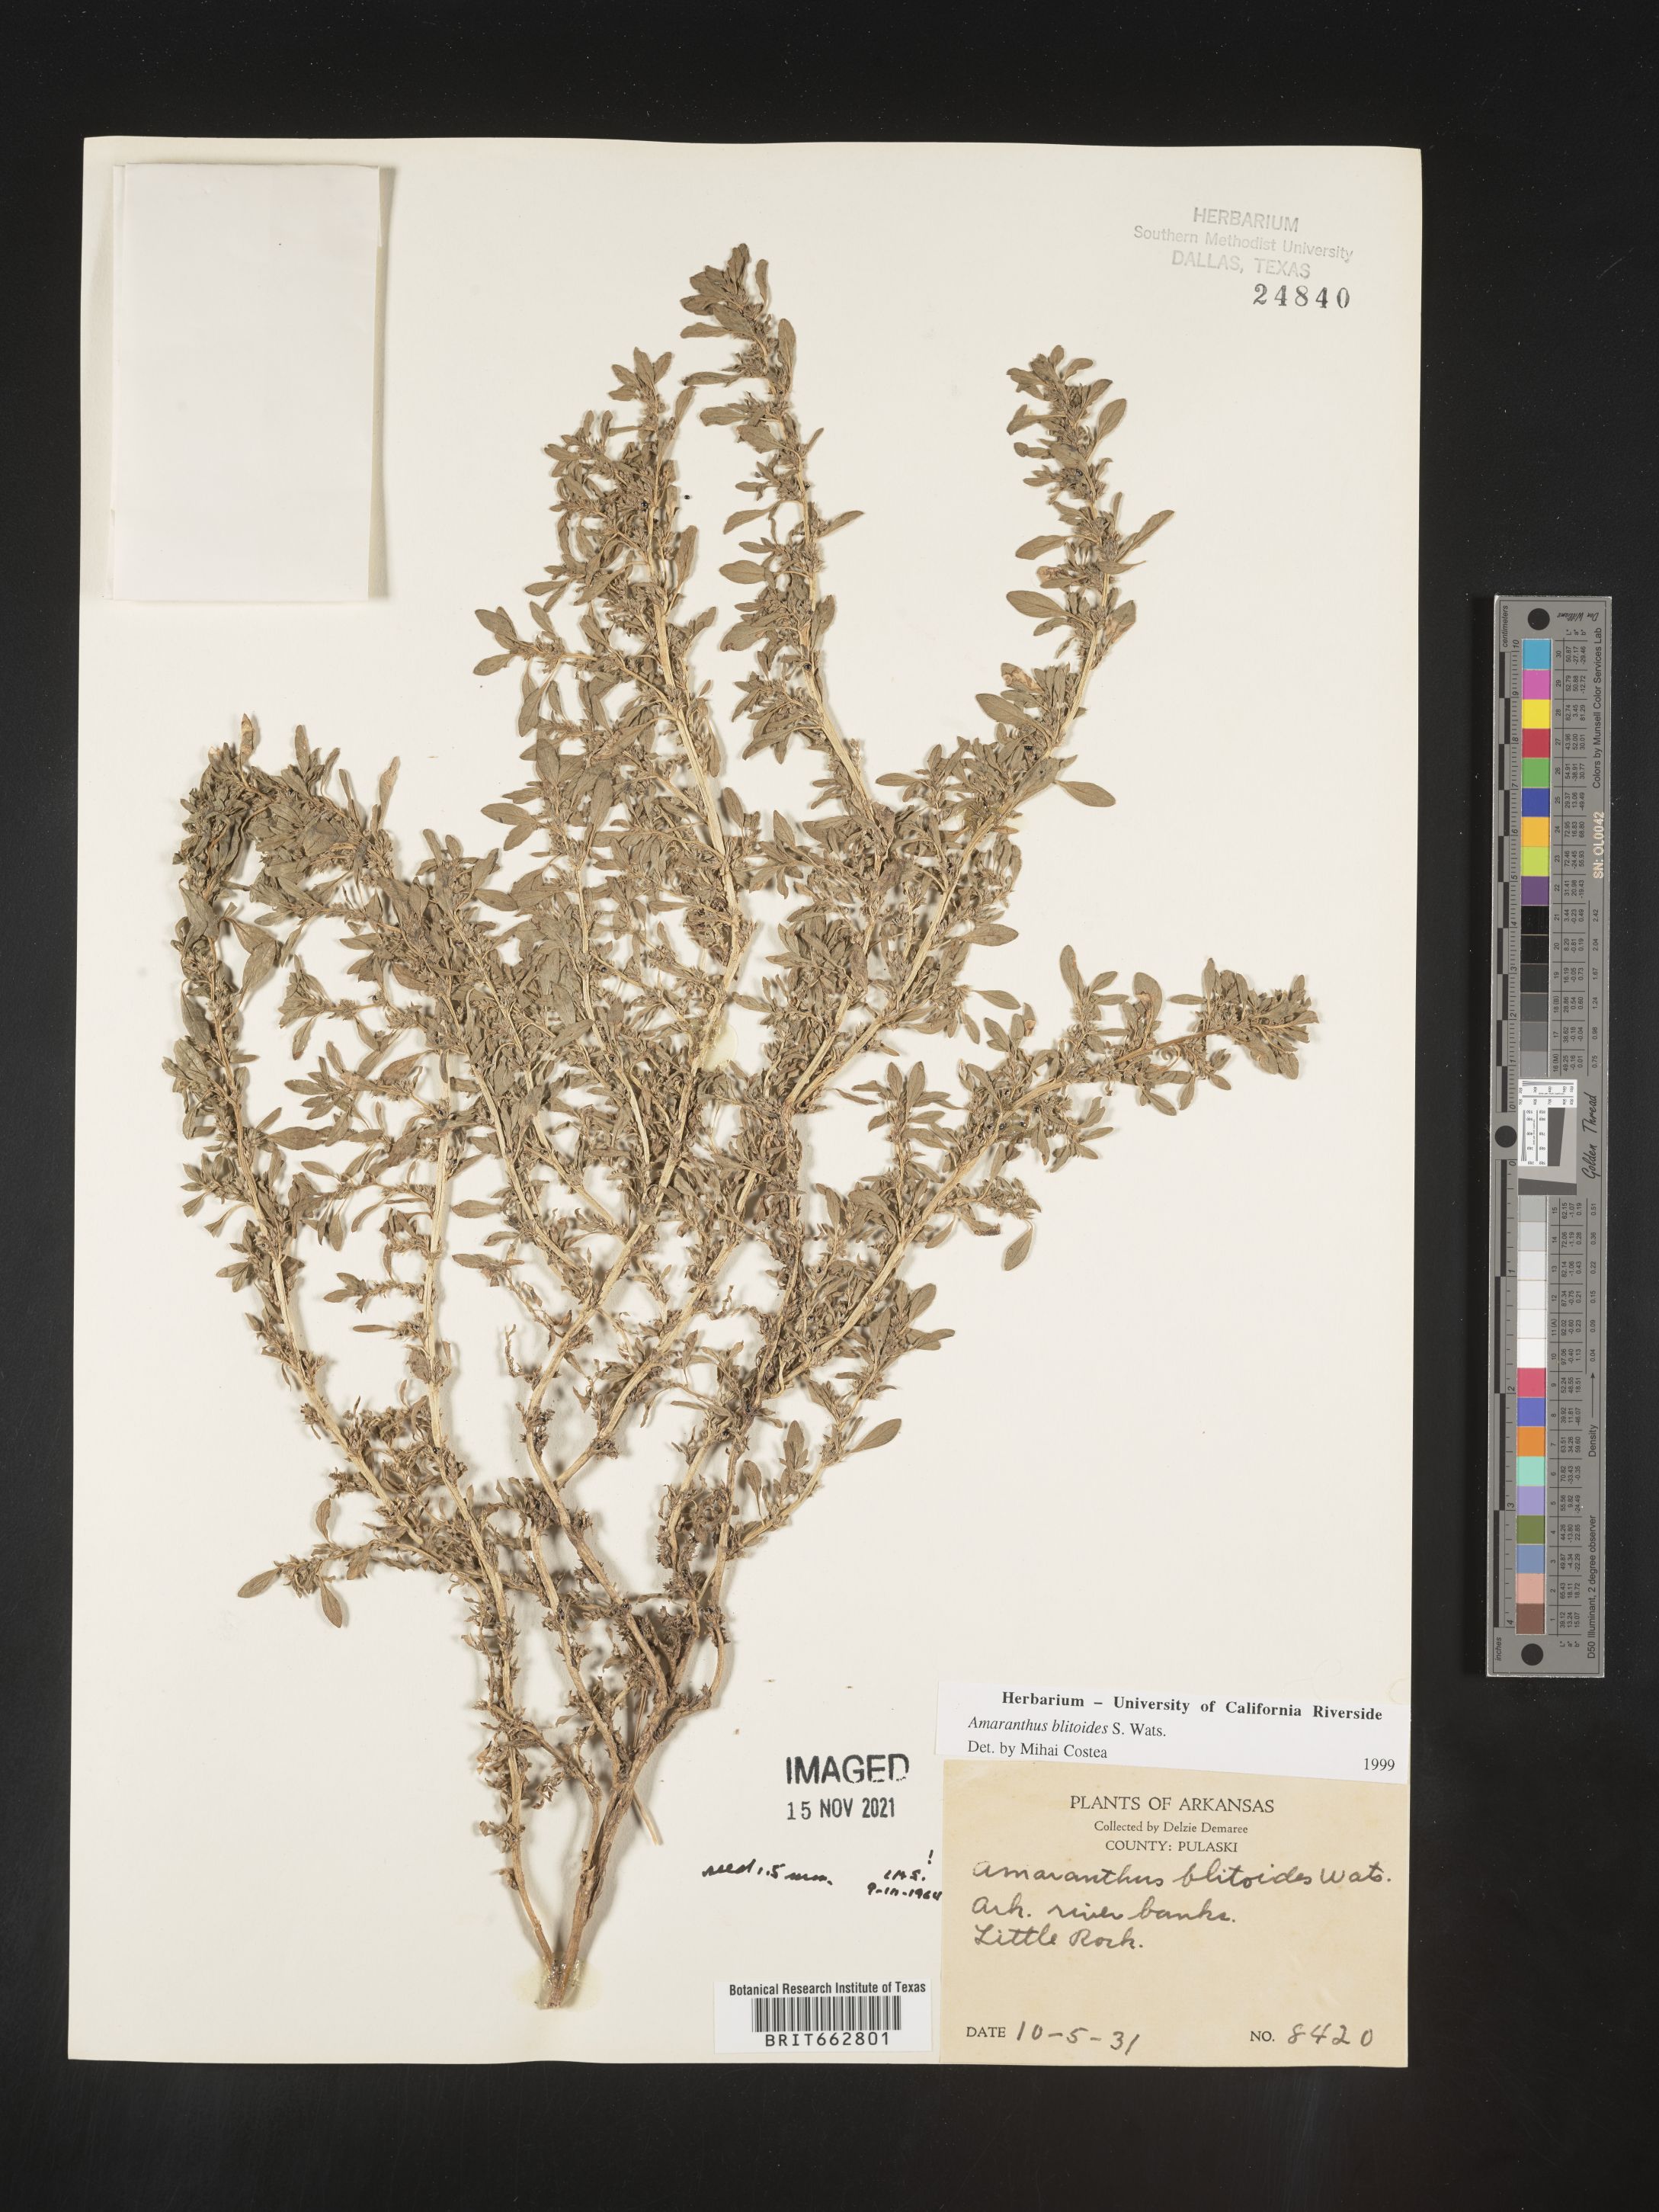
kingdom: Plantae
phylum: Tracheophyta
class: Magnoliopsida
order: Caryophyllales
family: Amaranthaceae
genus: Amaranthus
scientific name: Amaranthus blitoides
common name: Prostrate pigweed
